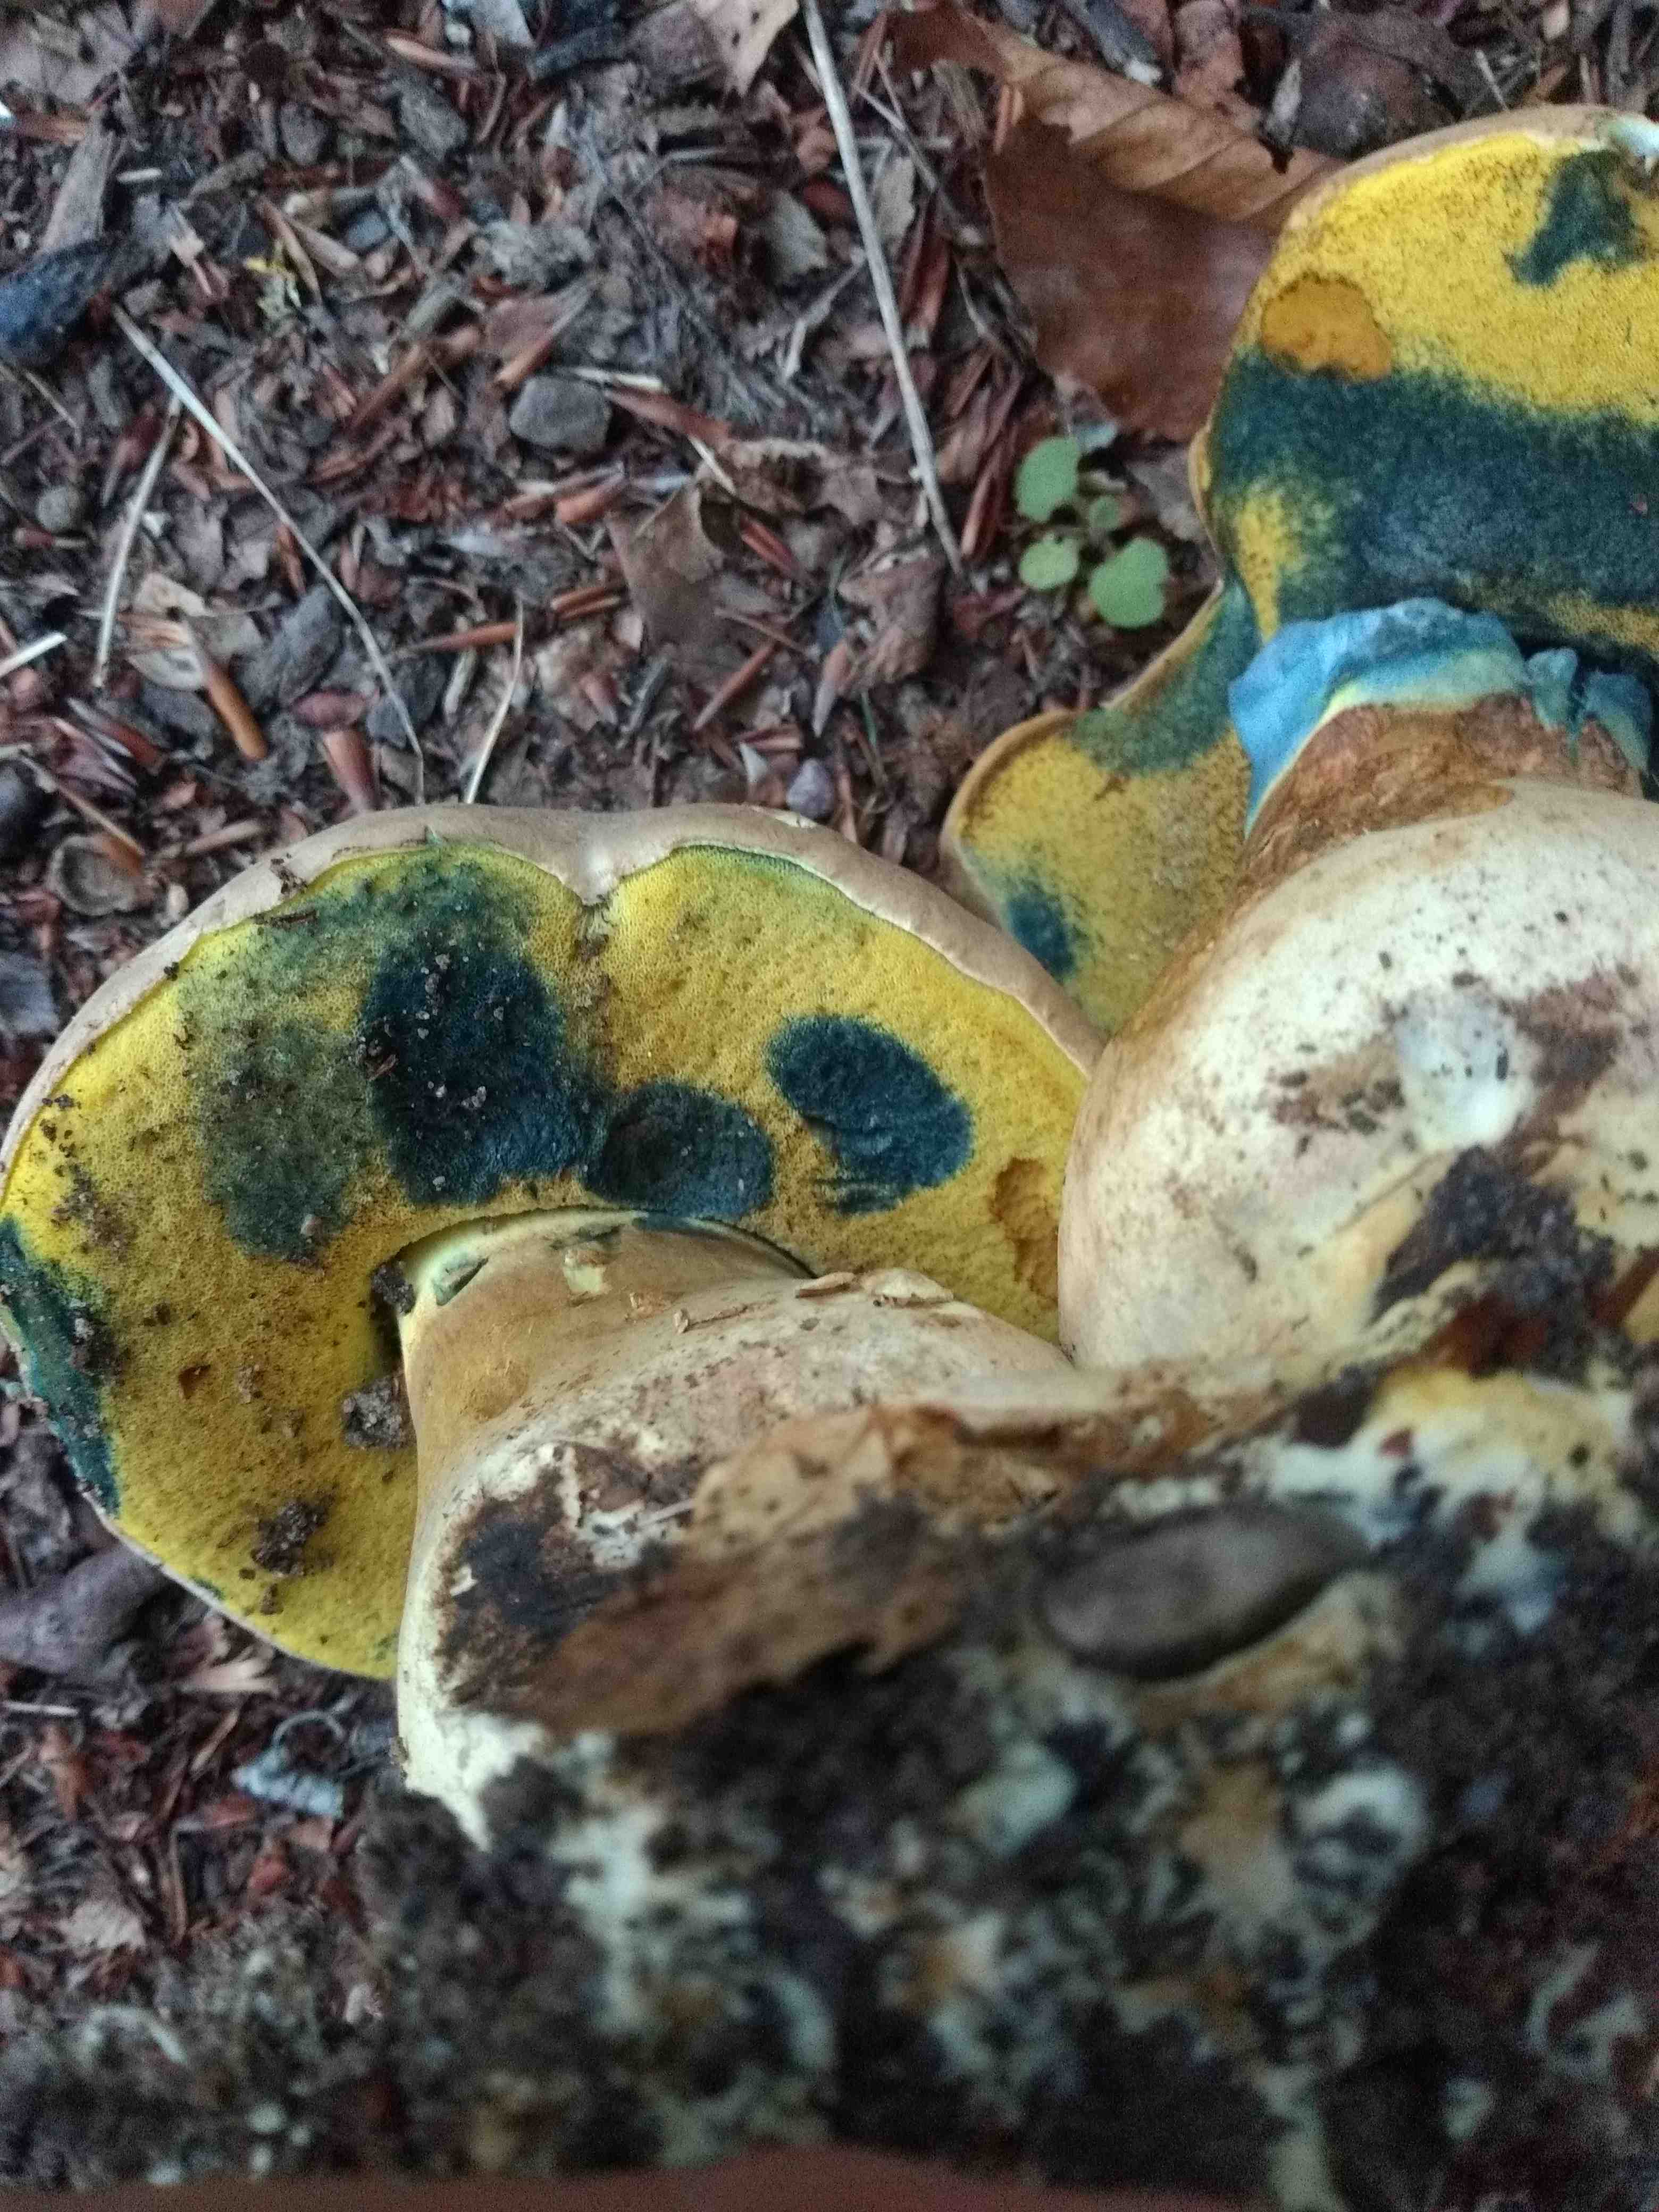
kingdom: Fungi
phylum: Basidiomycota
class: Agaricomycetes
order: Boletales
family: Boletaceae
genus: Caloboletus
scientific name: Caloboletus radicans
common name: rod-rørhat
